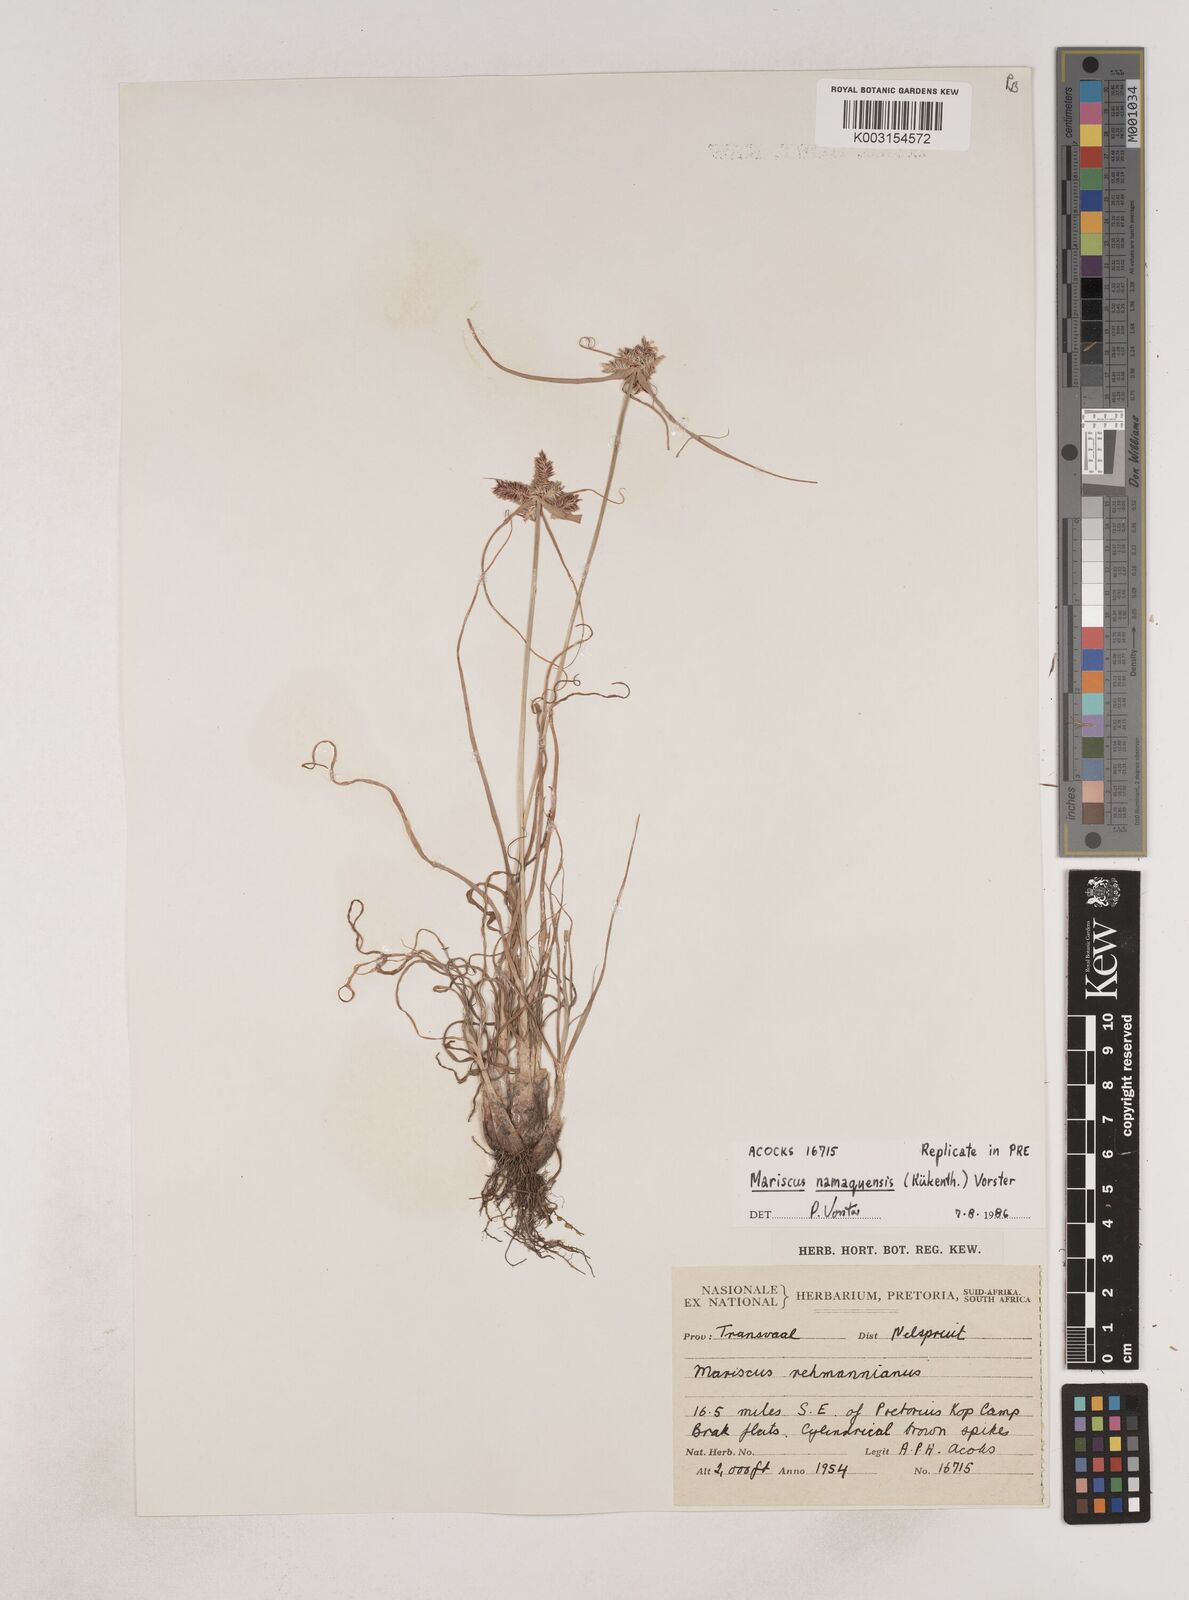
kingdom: Plantae
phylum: Tracheophyta
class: Liliopsida
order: Poales
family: Cyperaceae
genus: Cyperus
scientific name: Cyperus indecorus
